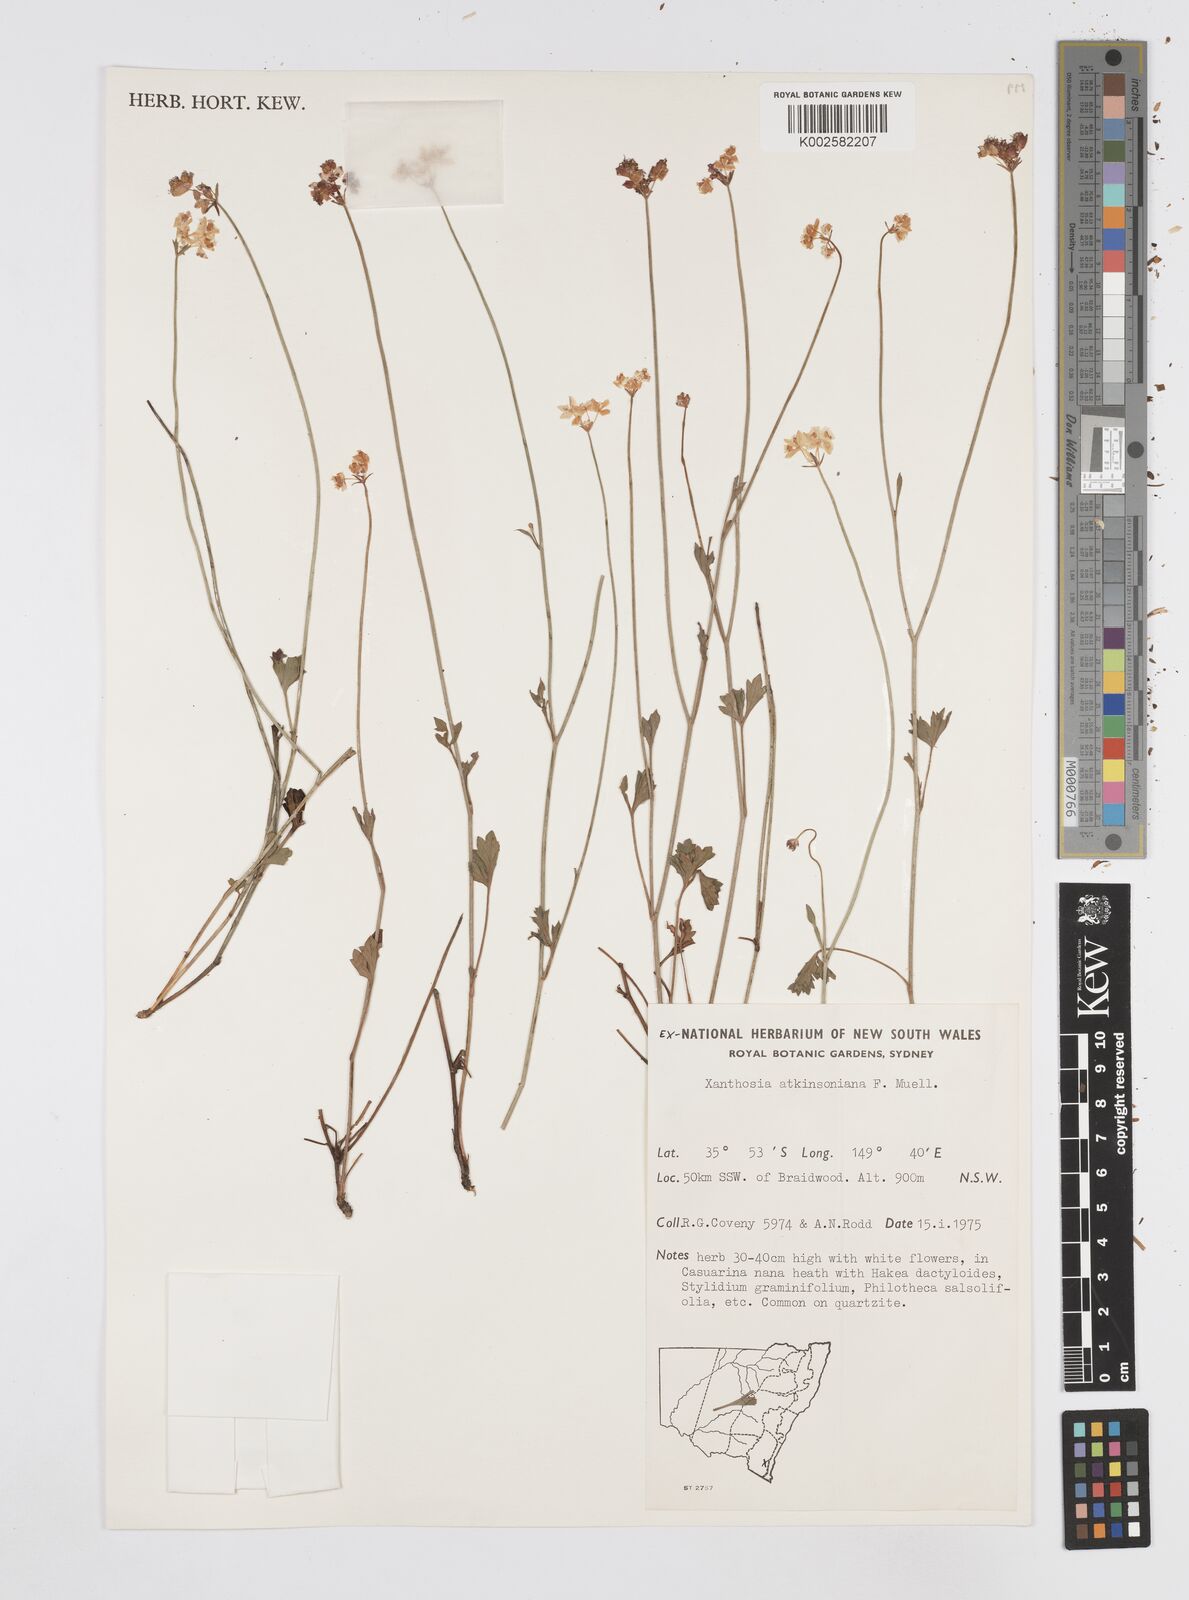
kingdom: Plantae
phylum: Tracheophyta
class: Magnoliopsida
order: Apiales
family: Apiaceae
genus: Xanthosia
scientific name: Xanthosia atkinsoniana
